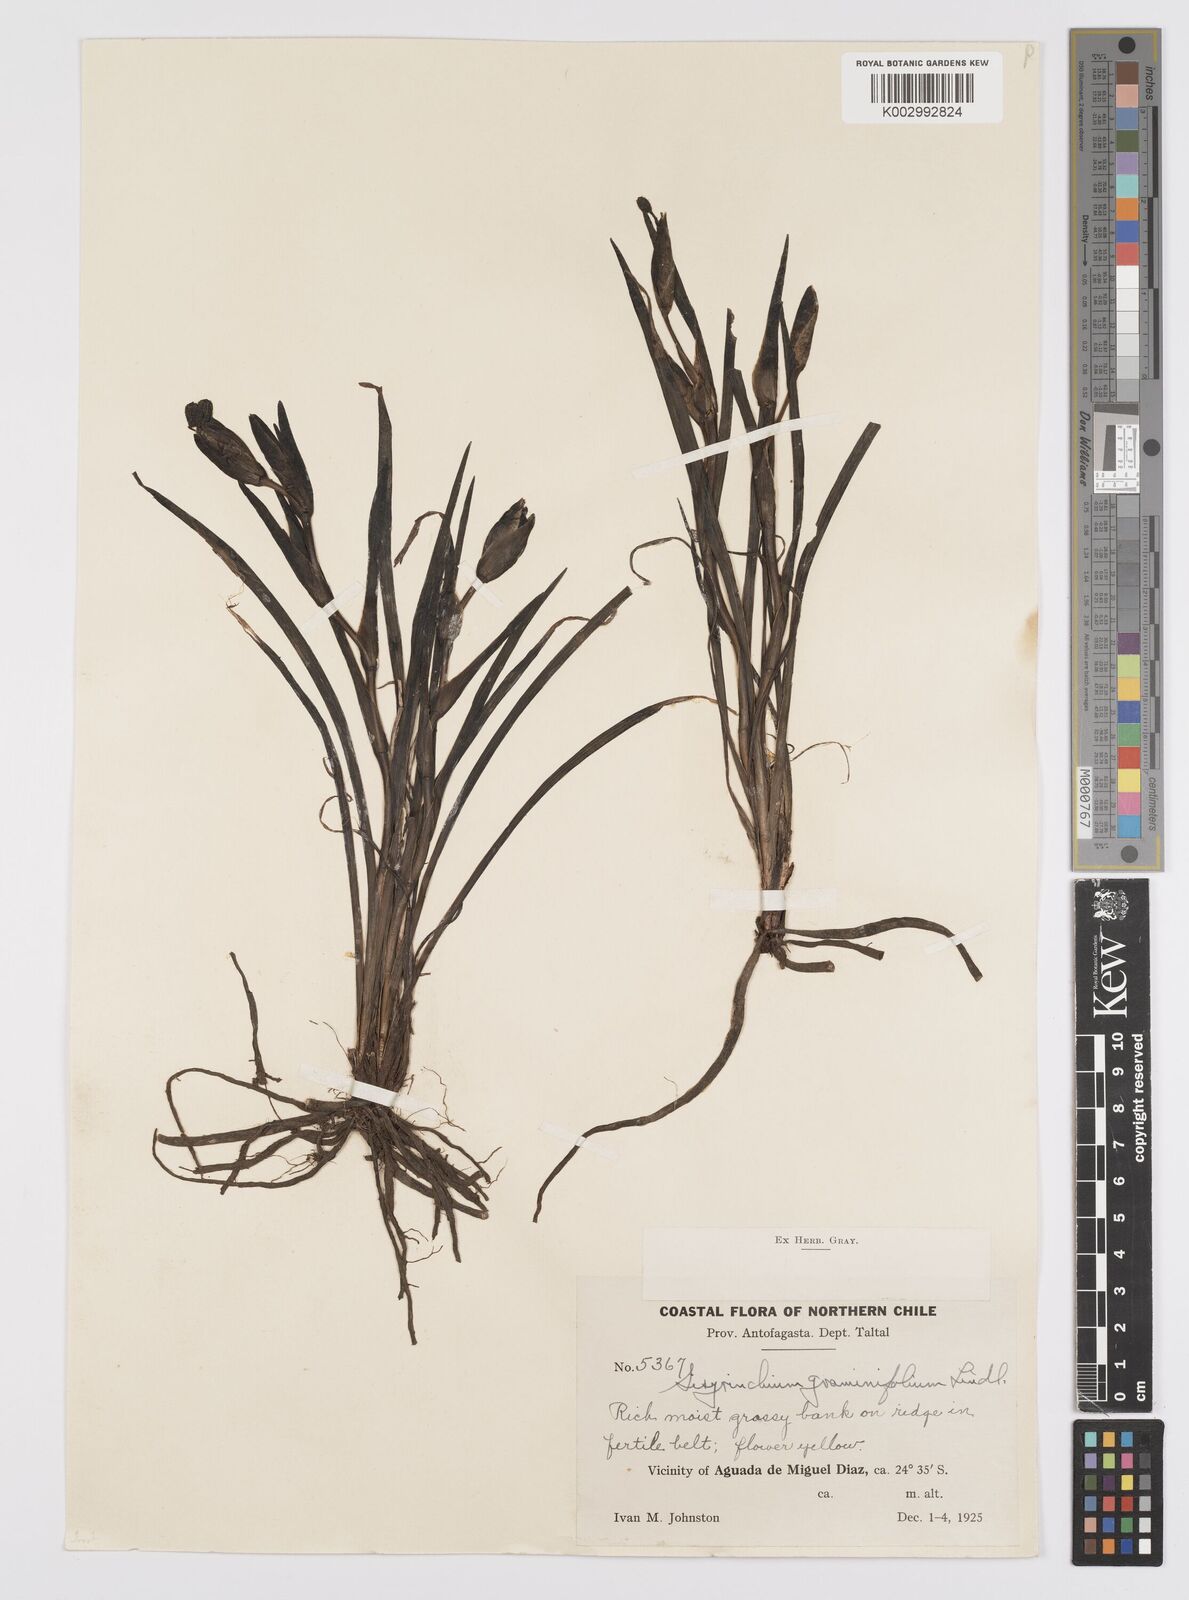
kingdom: Plantae
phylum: Tracheophyta
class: Liliopsida
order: Asparagales
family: Iridaceae
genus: Sisyrinchium
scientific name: Sisyrinchium graminifolium
